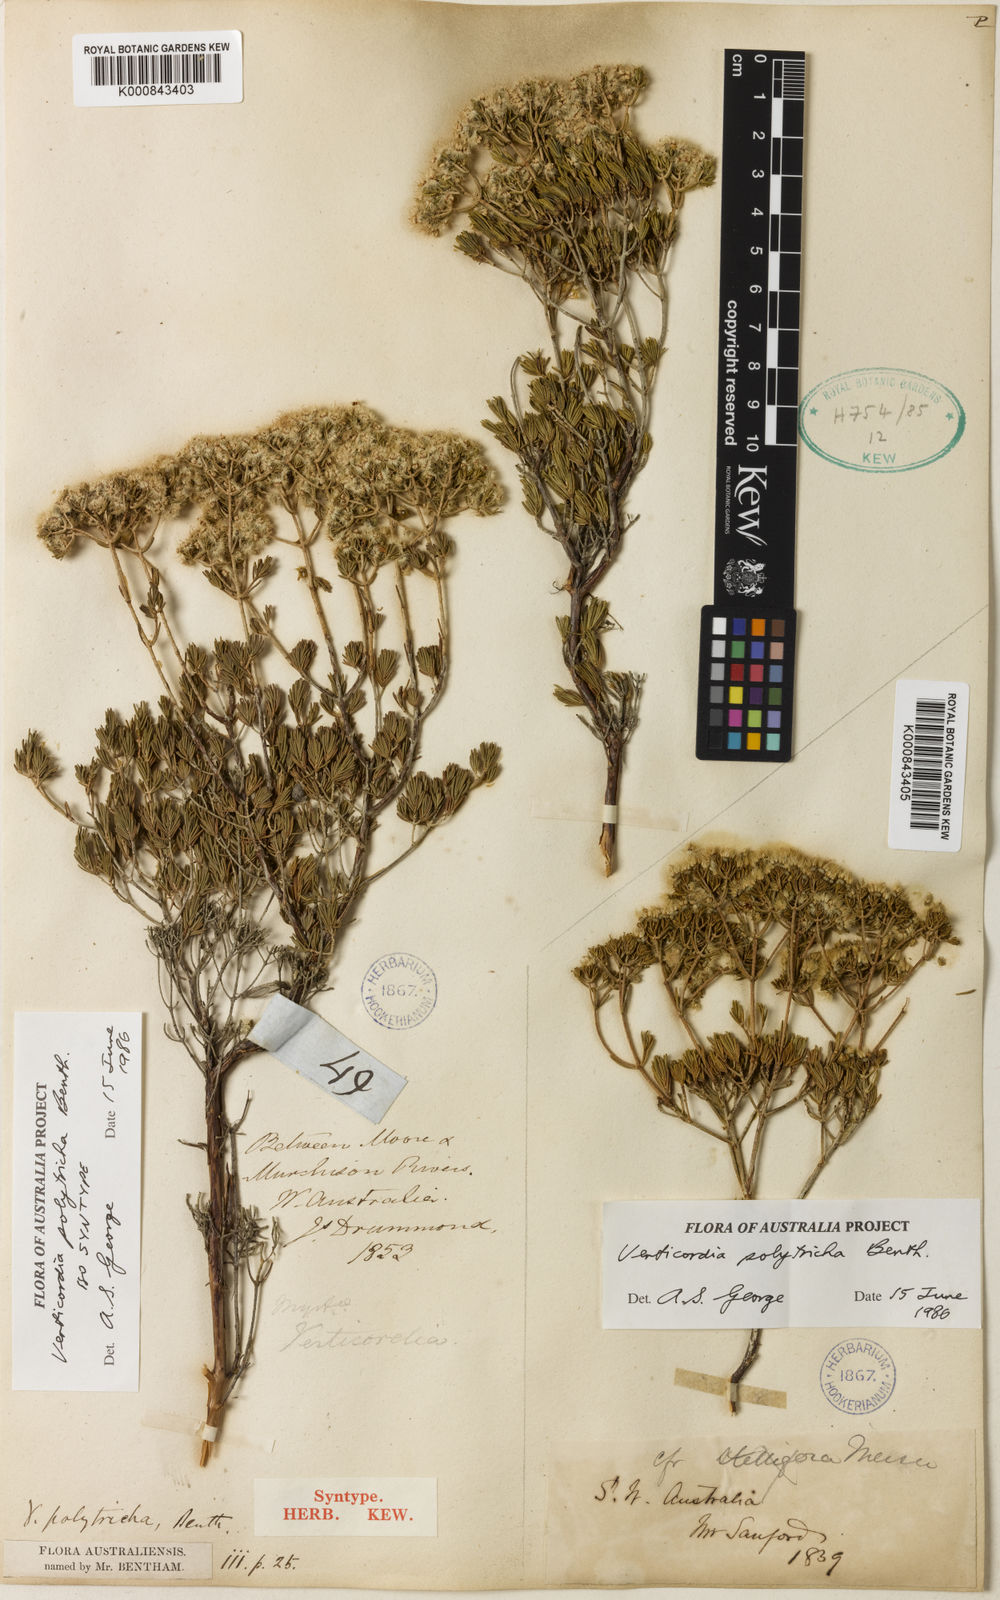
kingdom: Plantae
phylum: Tracheophyta
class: Magnoliopsida
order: Myrtales
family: Myrtaceae
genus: Verticordia
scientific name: Verticordia polytricha
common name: Northern-cauliflower
